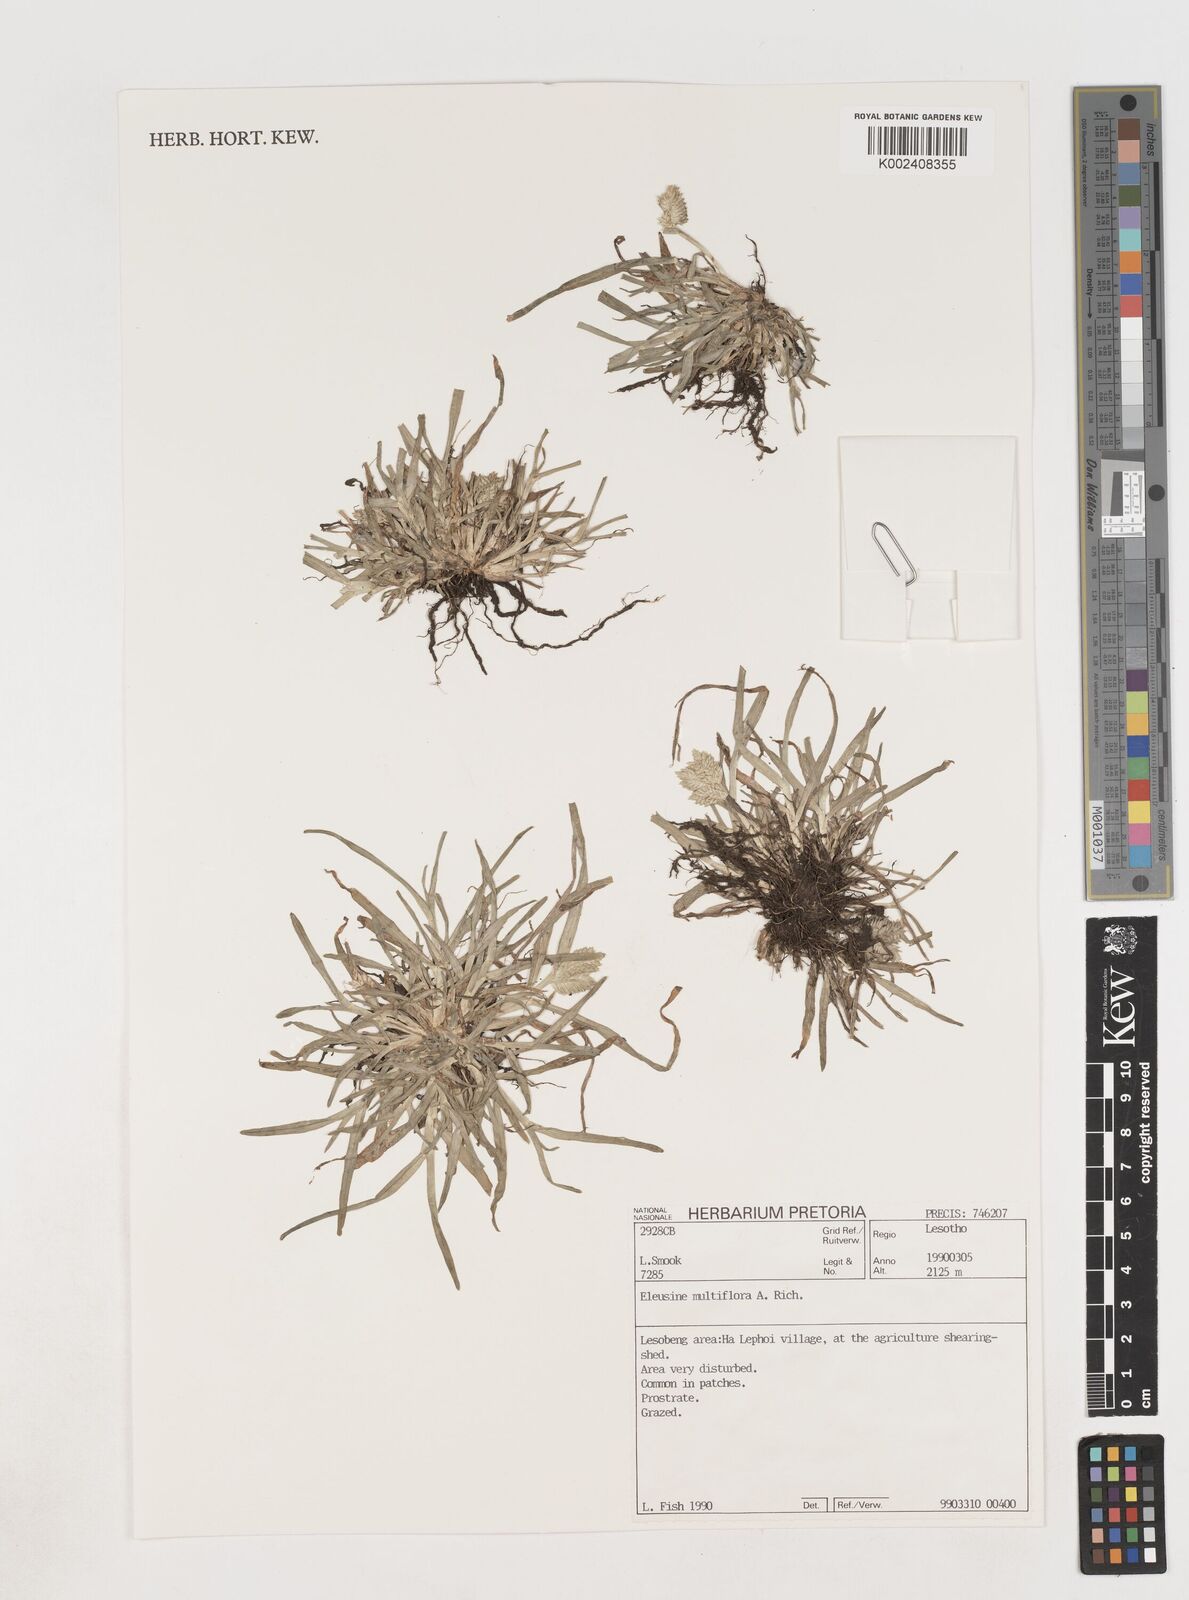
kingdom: Plantae
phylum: Tracheophyta
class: Liliopsida
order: Poales
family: Poaceae
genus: Eleusine
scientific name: Eleusine multiflora
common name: Fat-spiked yard-grass
